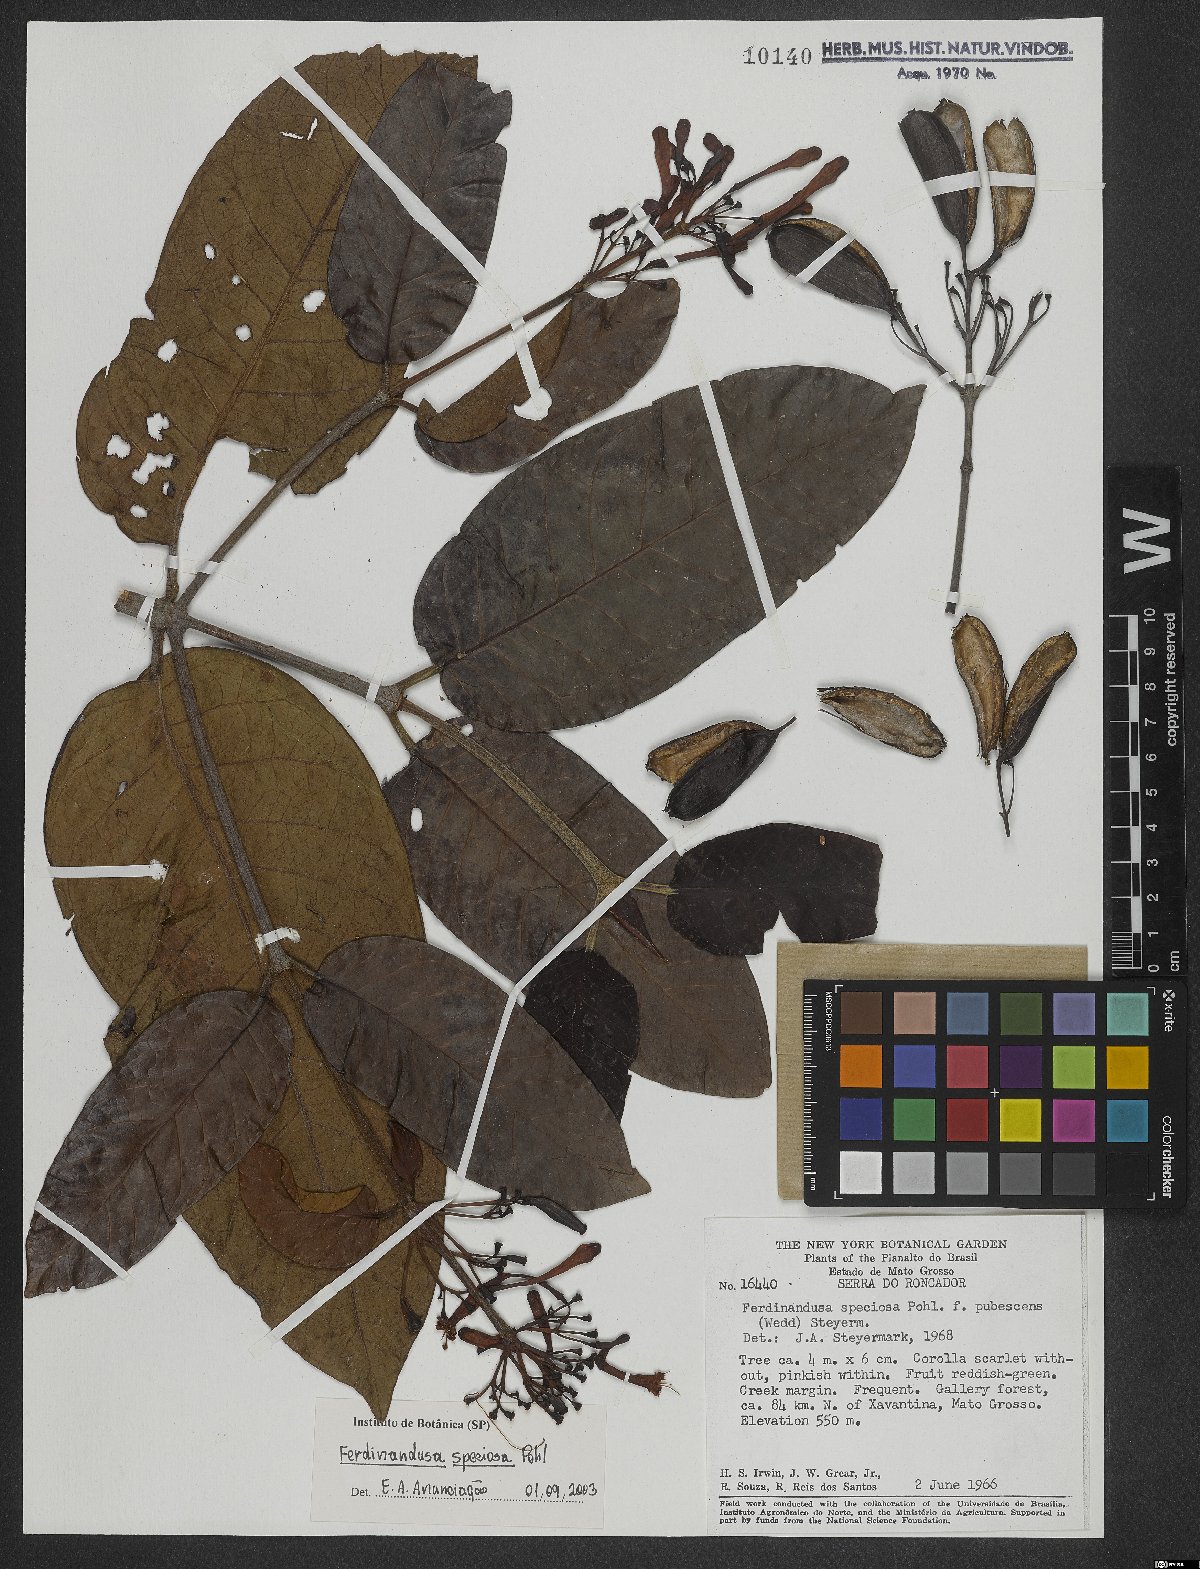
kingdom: Plantae
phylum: Tracheophyta
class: Magnoliopsida
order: Gentianales
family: Rubiaceae
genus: Ferdinandusa
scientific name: Ferdinandusa speciosa
